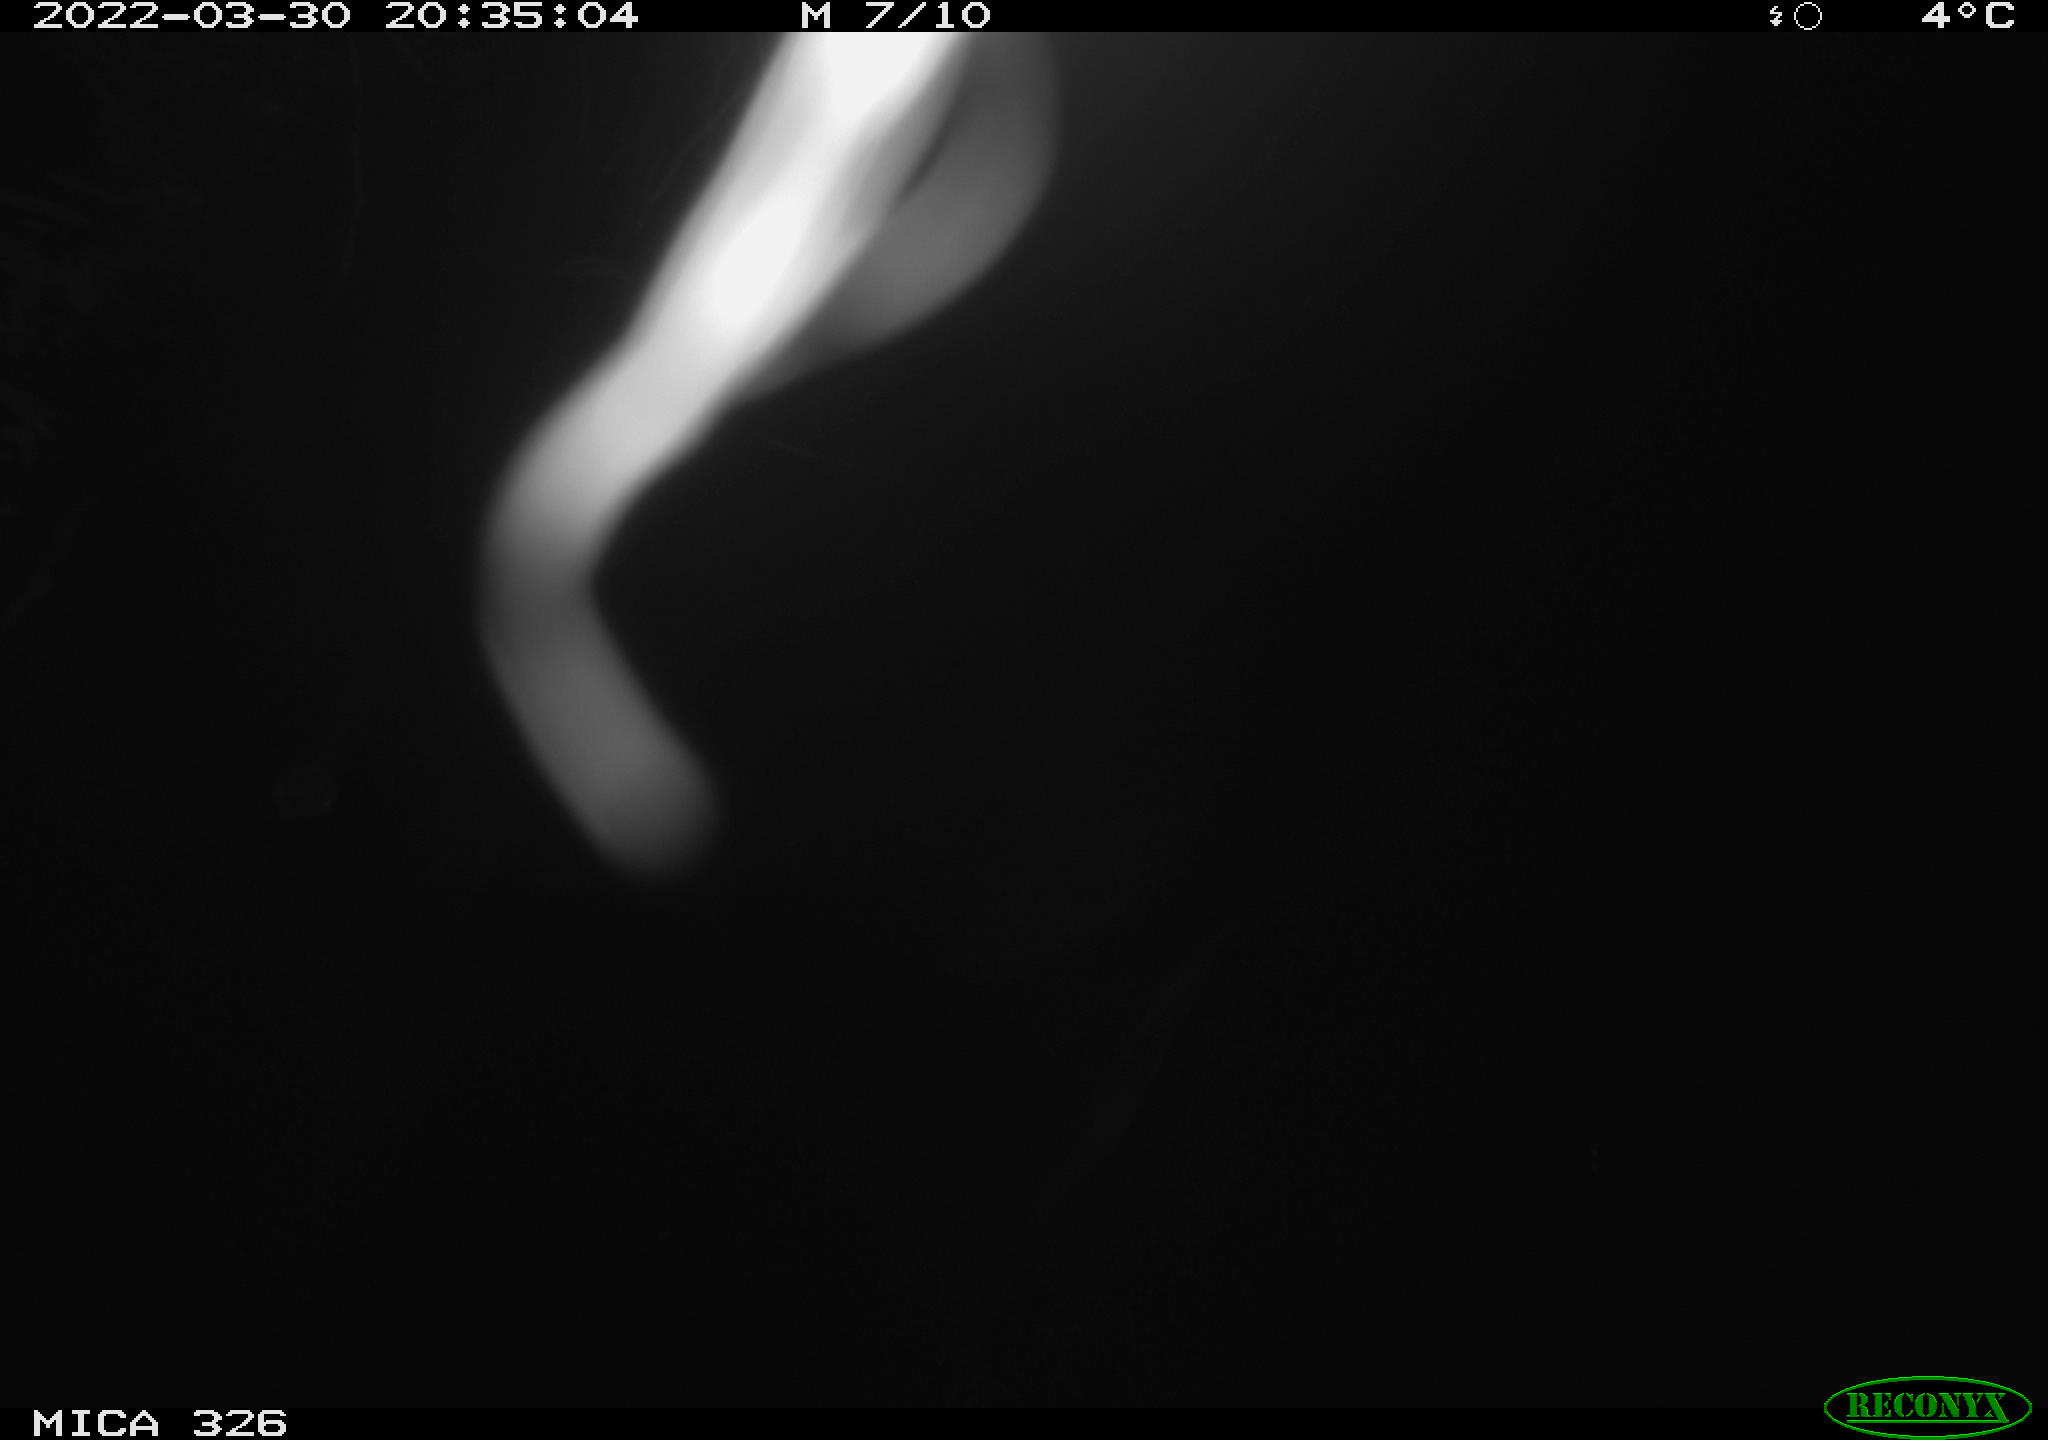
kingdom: Animalia
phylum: Chordata
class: Mammalia
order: Rodentia
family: Muridae
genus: Rattus
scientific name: Rattus norvegicus
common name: Brown rat
